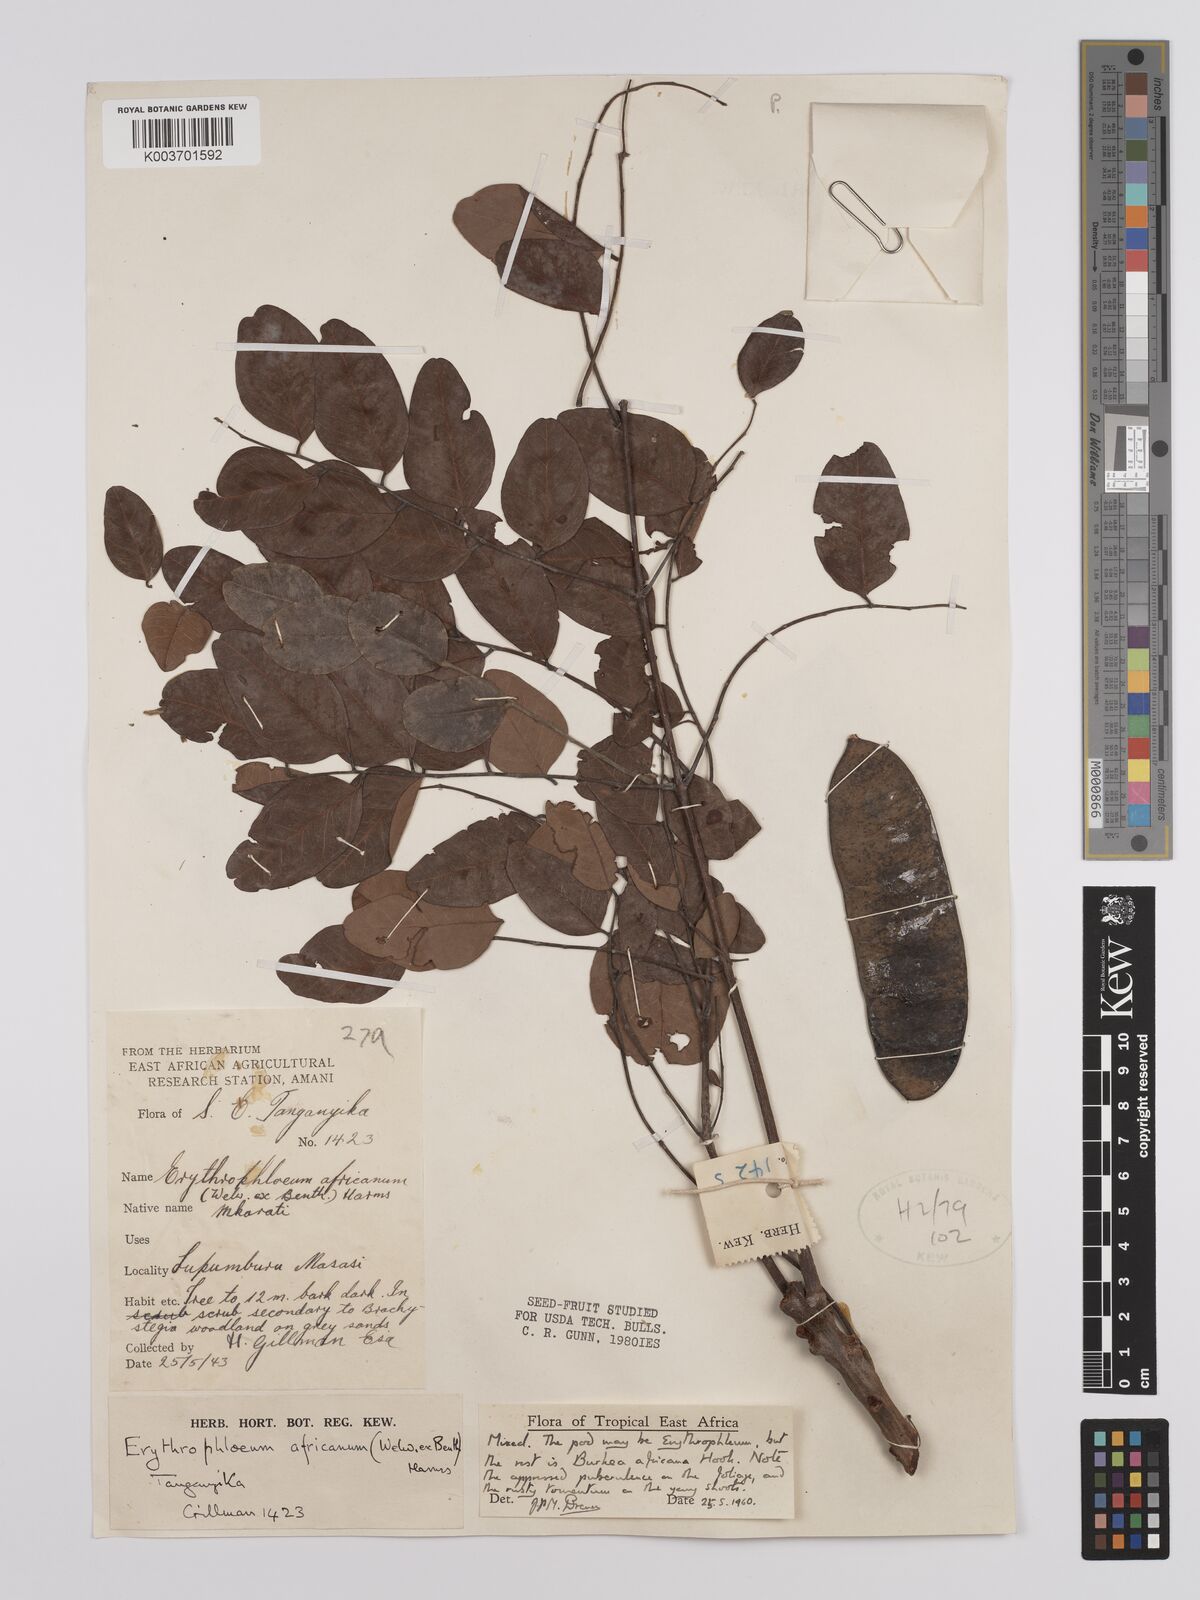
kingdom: Plantae
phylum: Tracheophyta
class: Magnoliopsida
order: Fabales
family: Fabaceae
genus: Erythrophleum
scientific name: Erythrophleum africanum
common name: African blackwood
